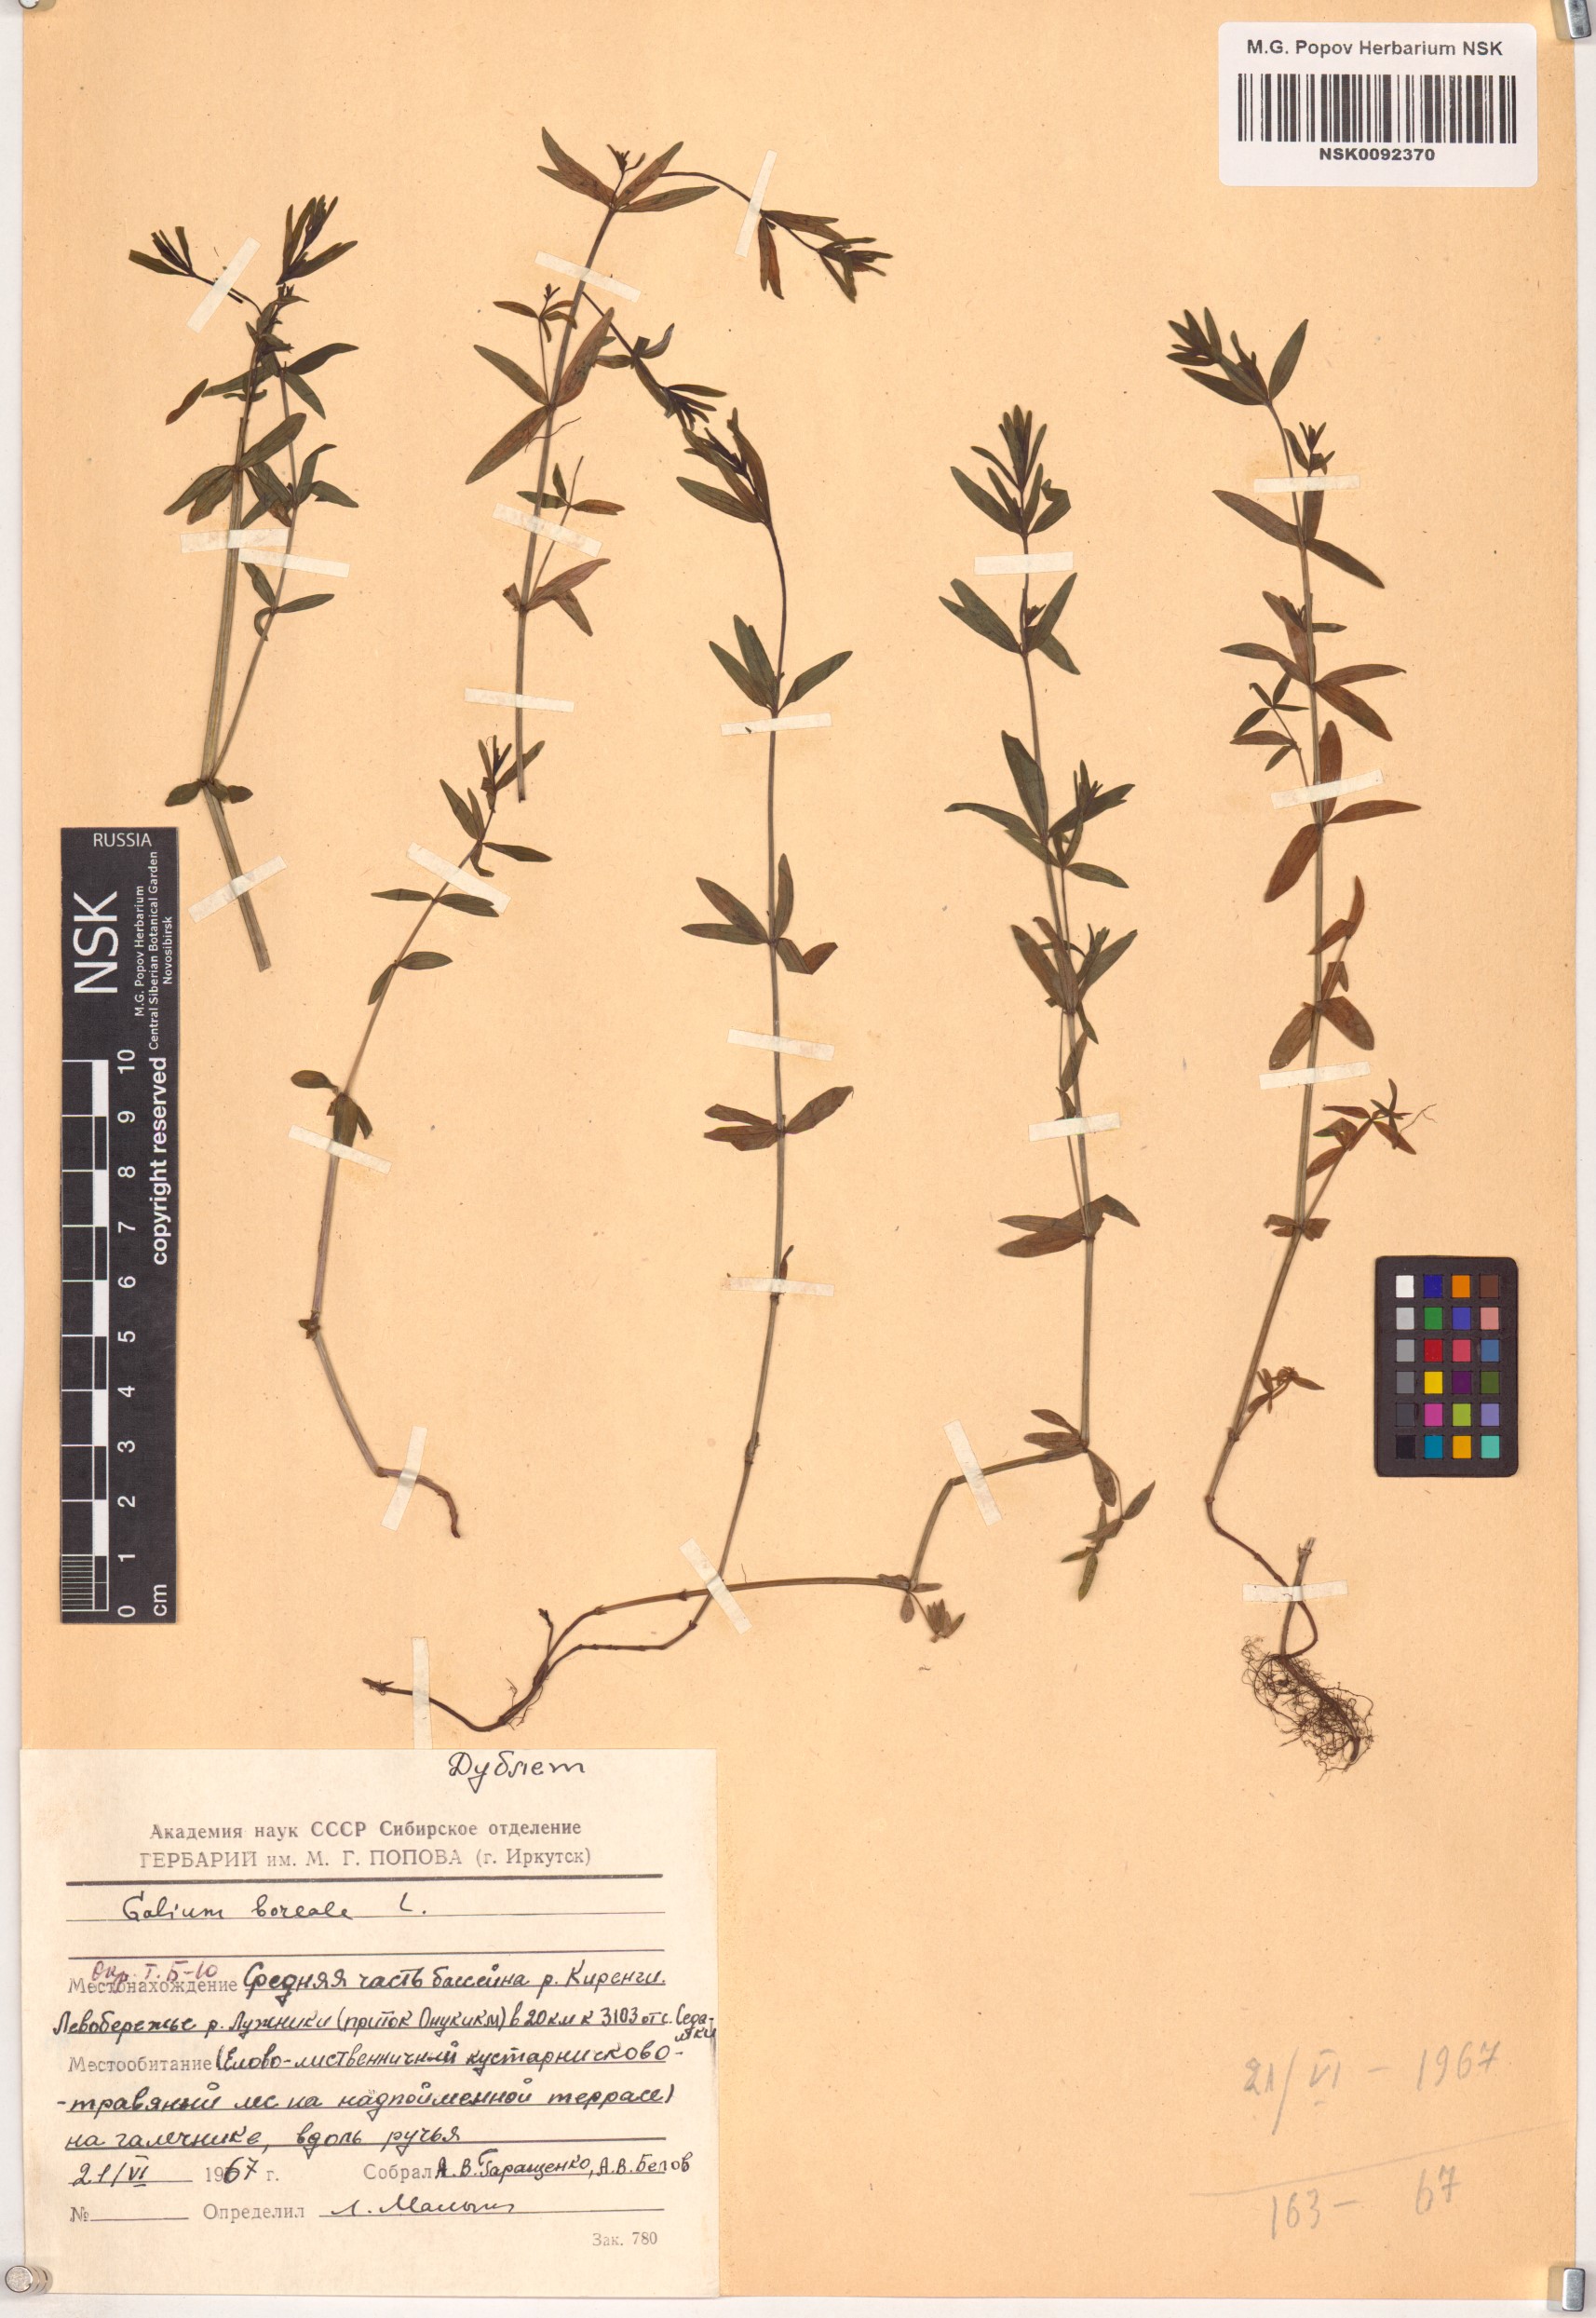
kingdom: Plantae
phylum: Tracheophyta
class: Magnoliopsida
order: Gentianales
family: Rubiaceae
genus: Galium
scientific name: Galium boreale
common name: Northern bedstraw
